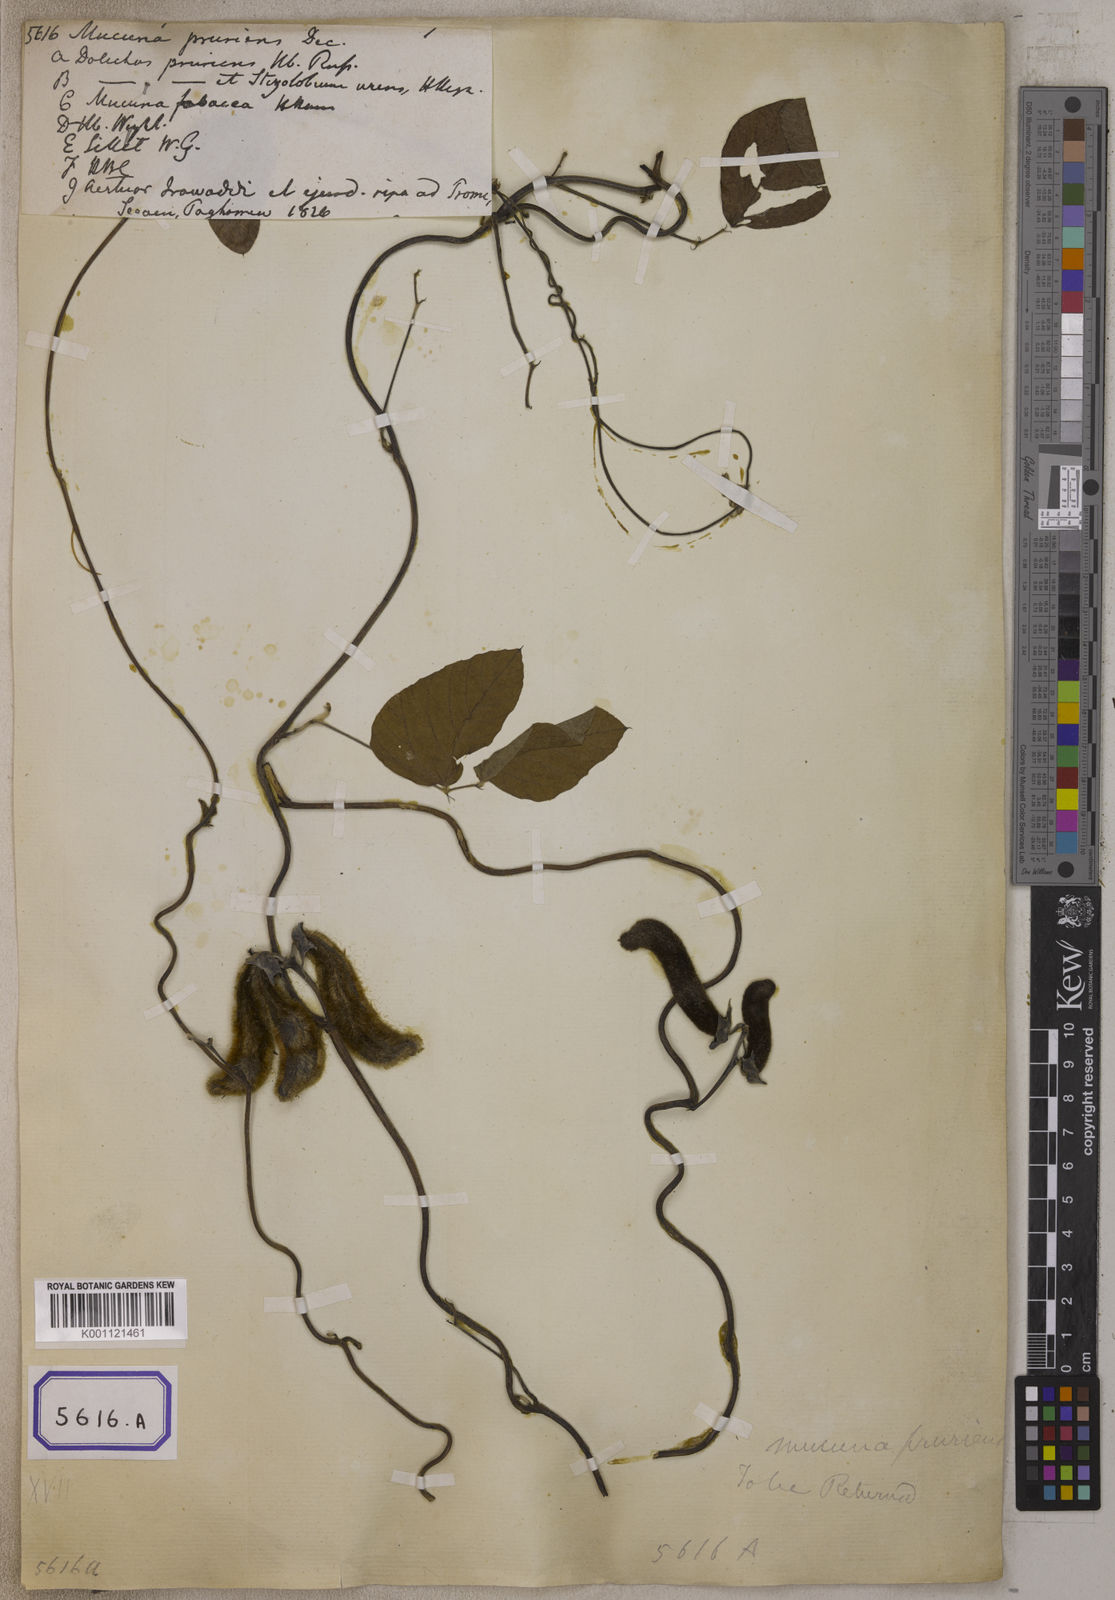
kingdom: Plantae
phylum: Tracheophyta
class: Magnoliopsida
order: Fabales
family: Fabaceae
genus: Mucuna
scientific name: Mucuna pruriens
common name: Cow-itch
